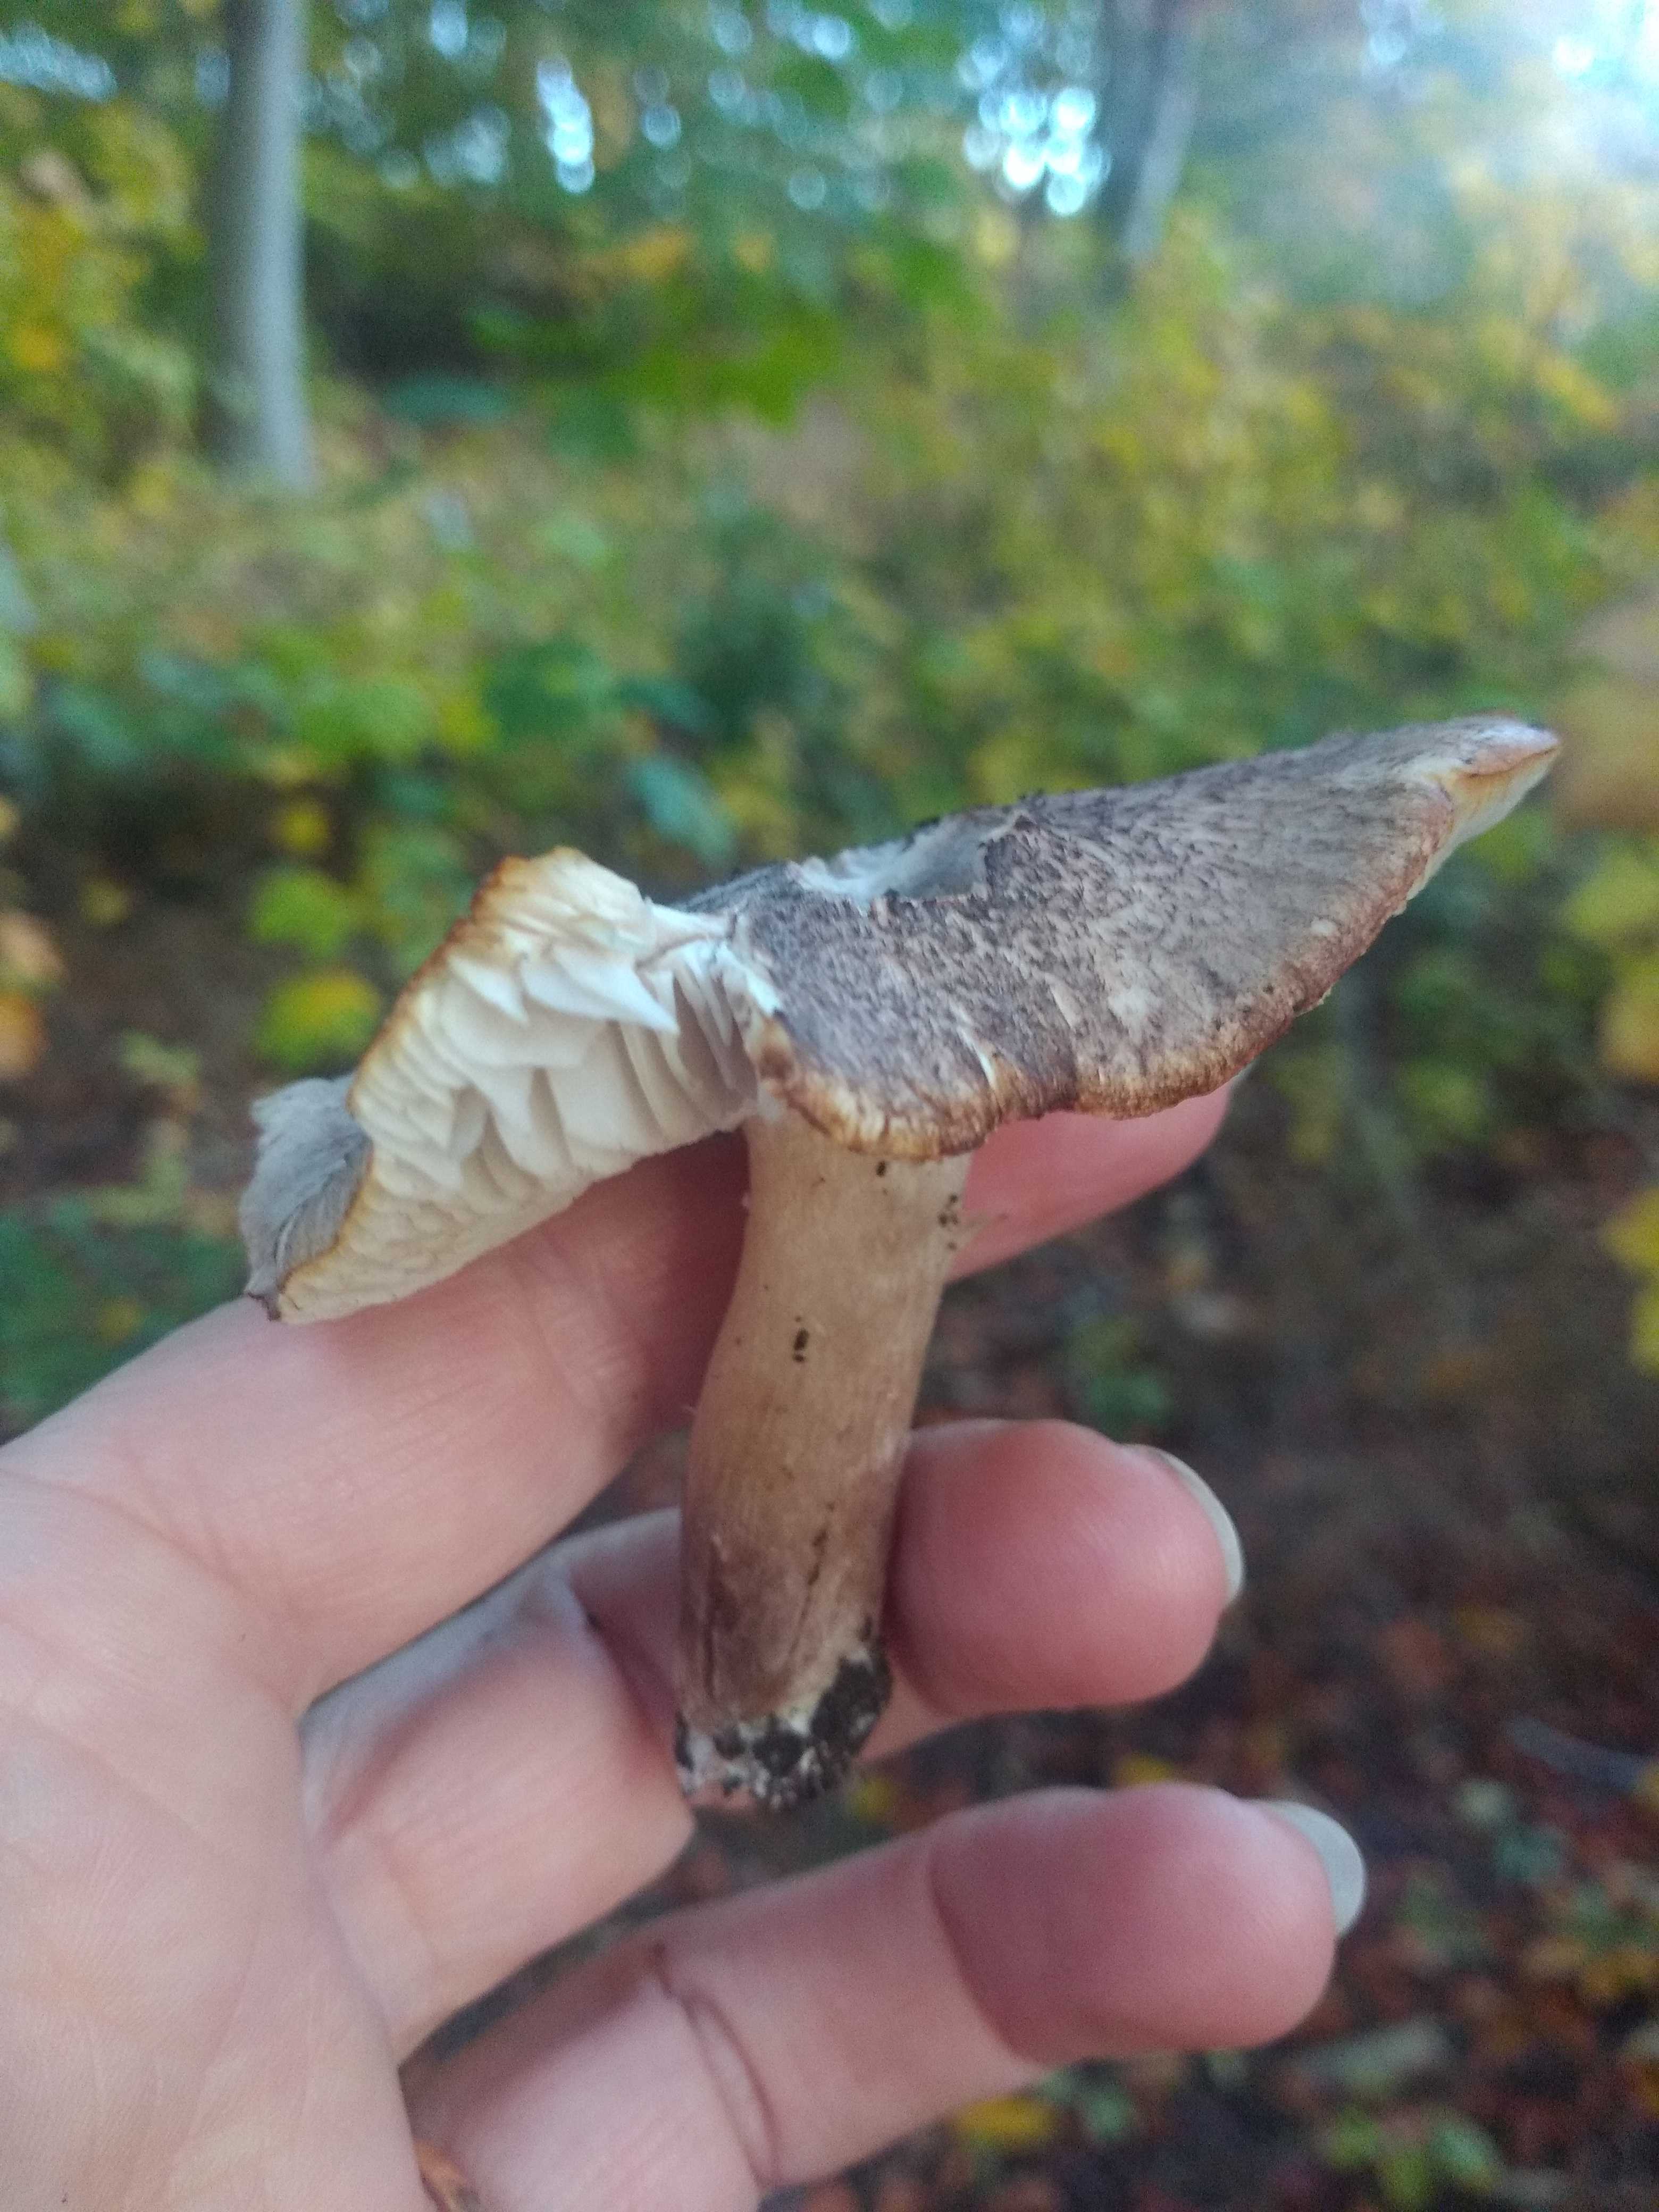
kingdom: Fungi
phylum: Basidiomycota
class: Agaricomycetes
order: Agaricales
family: Tricholomataceae
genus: Tricholoma
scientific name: Tricholoma scalpturatum
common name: gulplettet ridderhat
